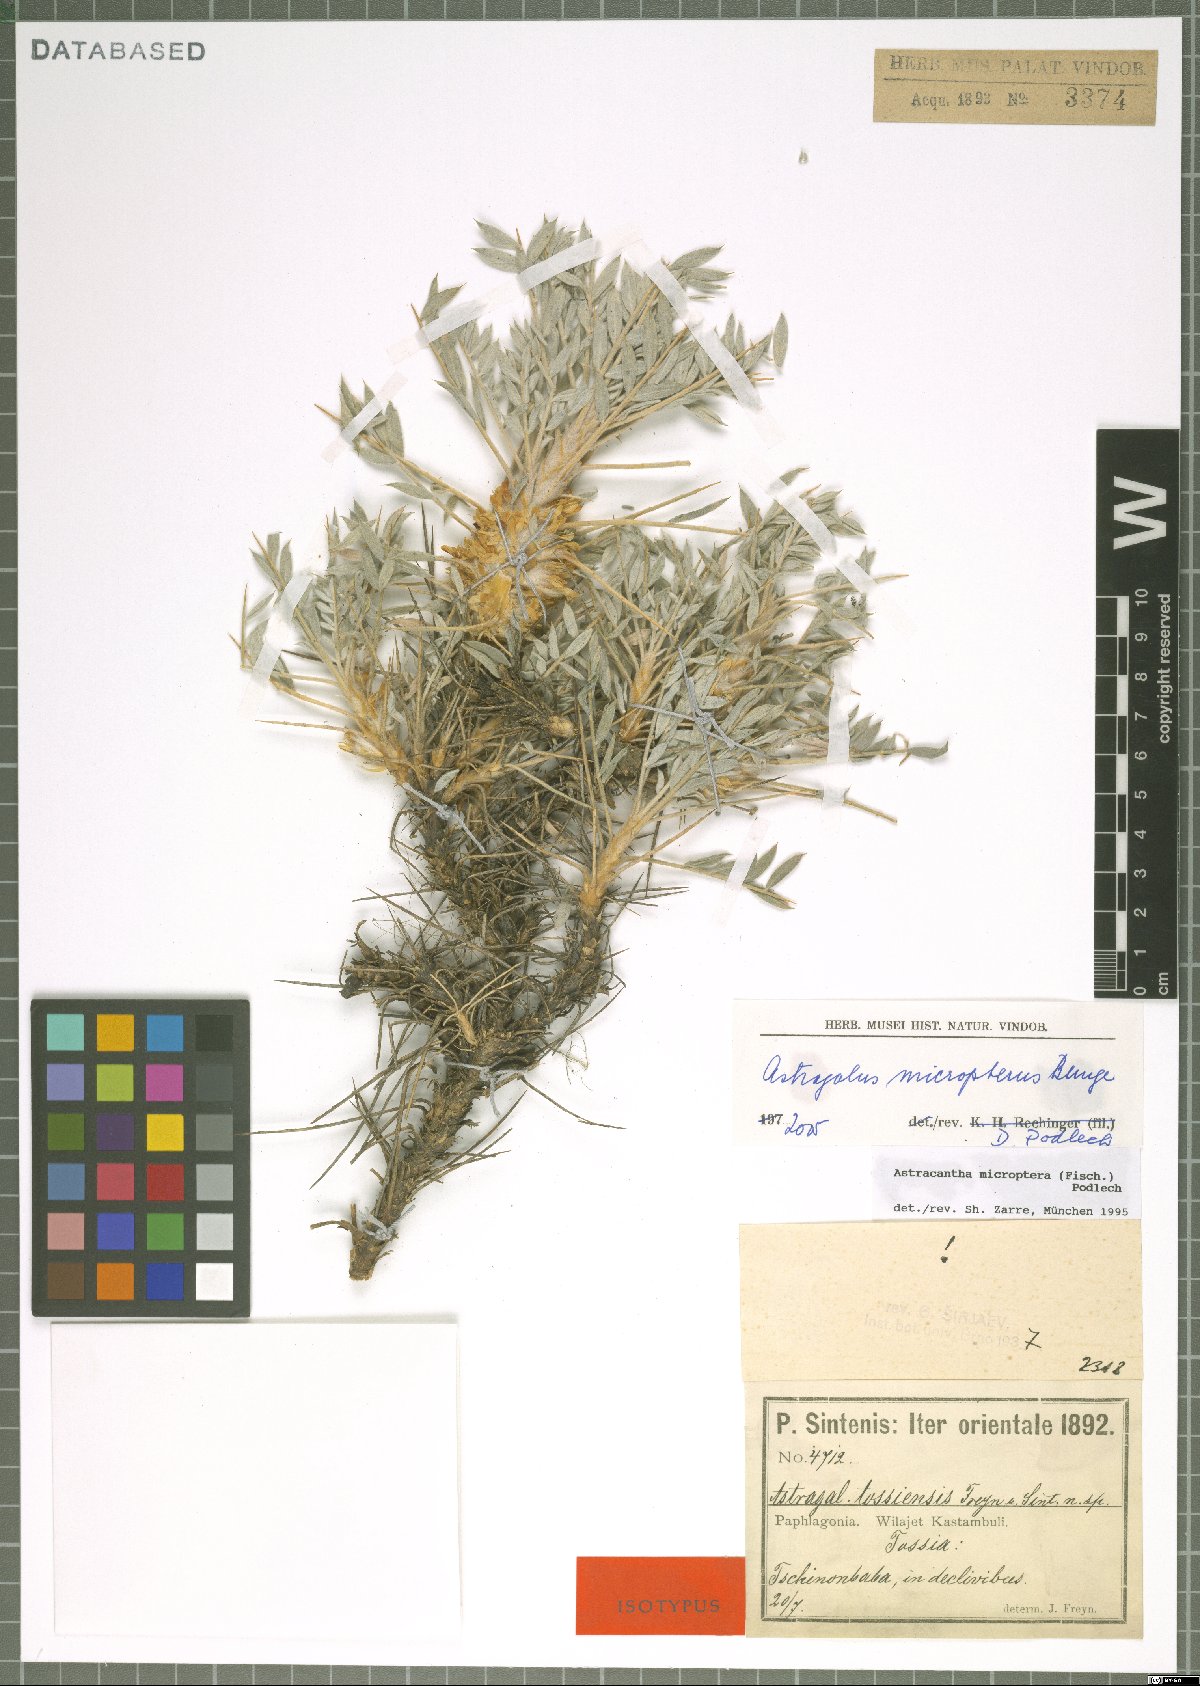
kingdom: Plantae
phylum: Tracheophyta
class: Magnoliopsida
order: Fabales
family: Fabaceae
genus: Astragalus
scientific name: Astragalus micropterus
